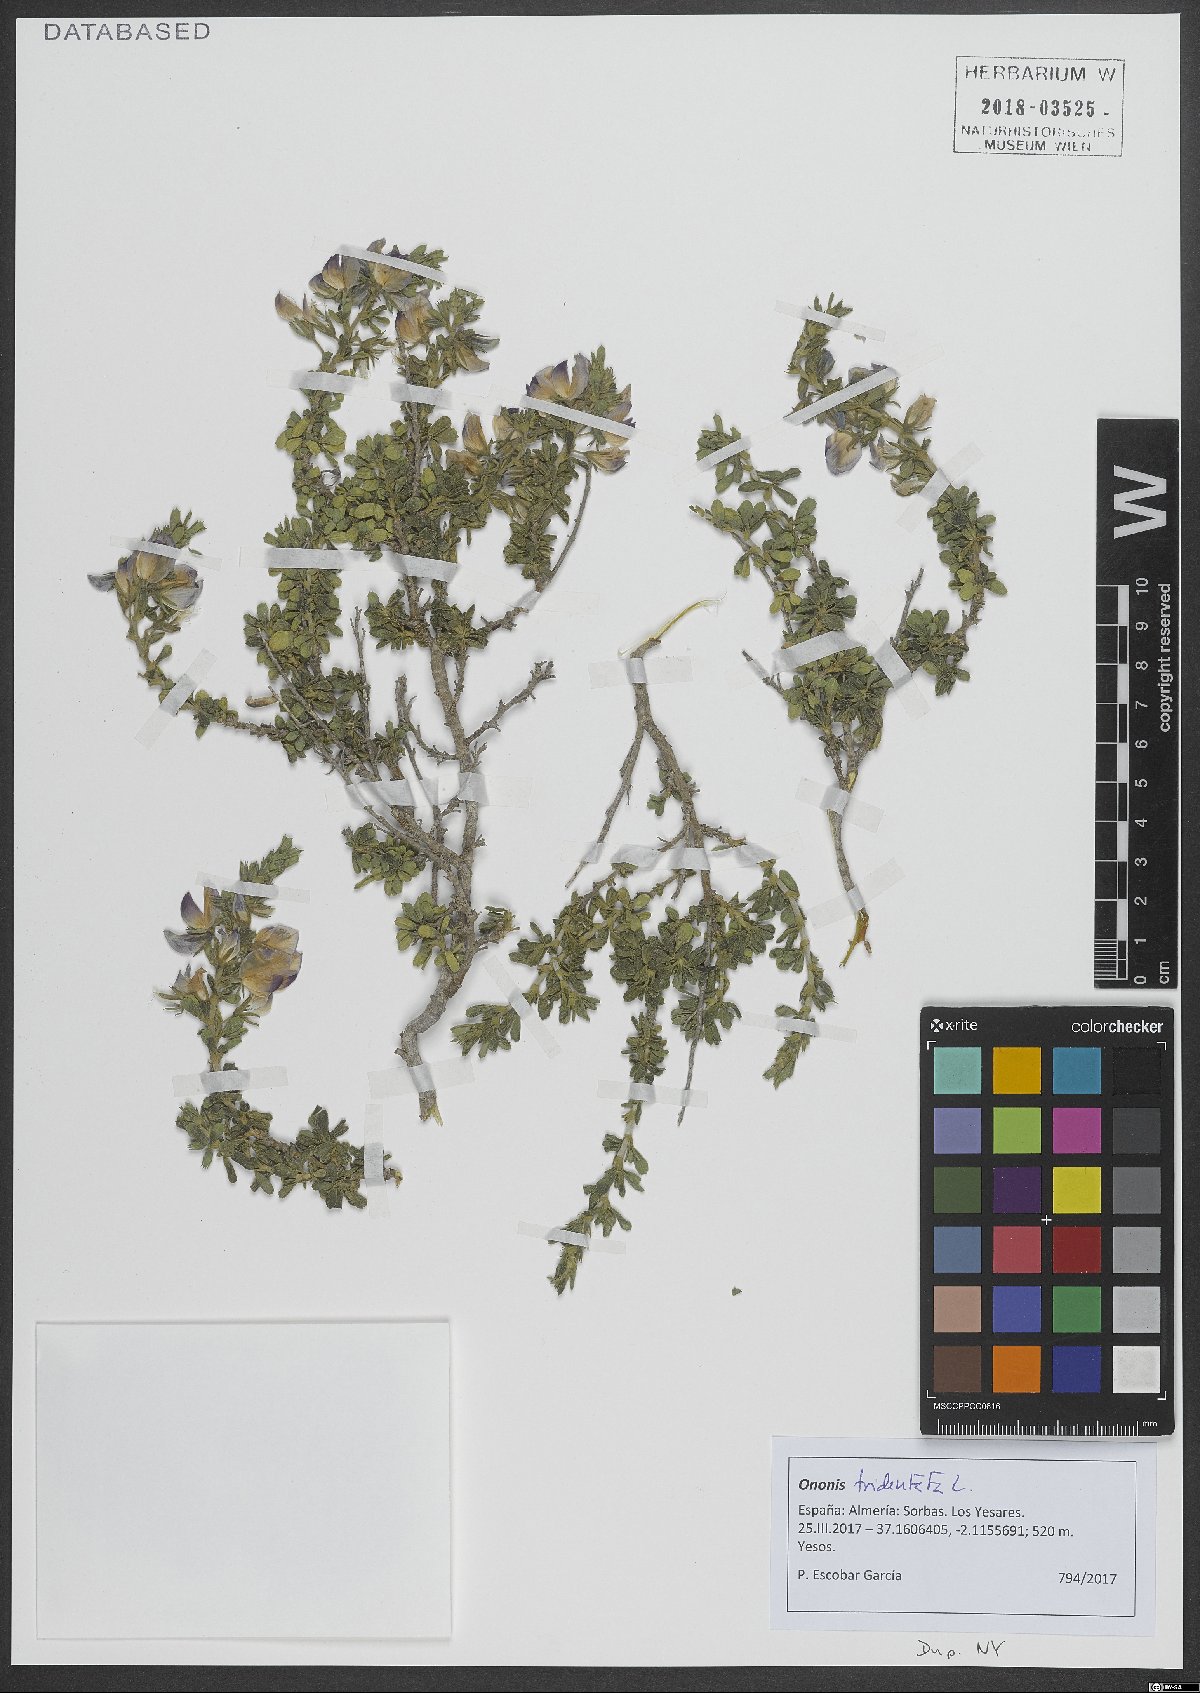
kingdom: Plantae
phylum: Tracheophyta
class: Magnoliopsida
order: Fabales
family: Fabaceae
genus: Ononis
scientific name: Ononis tridentata
